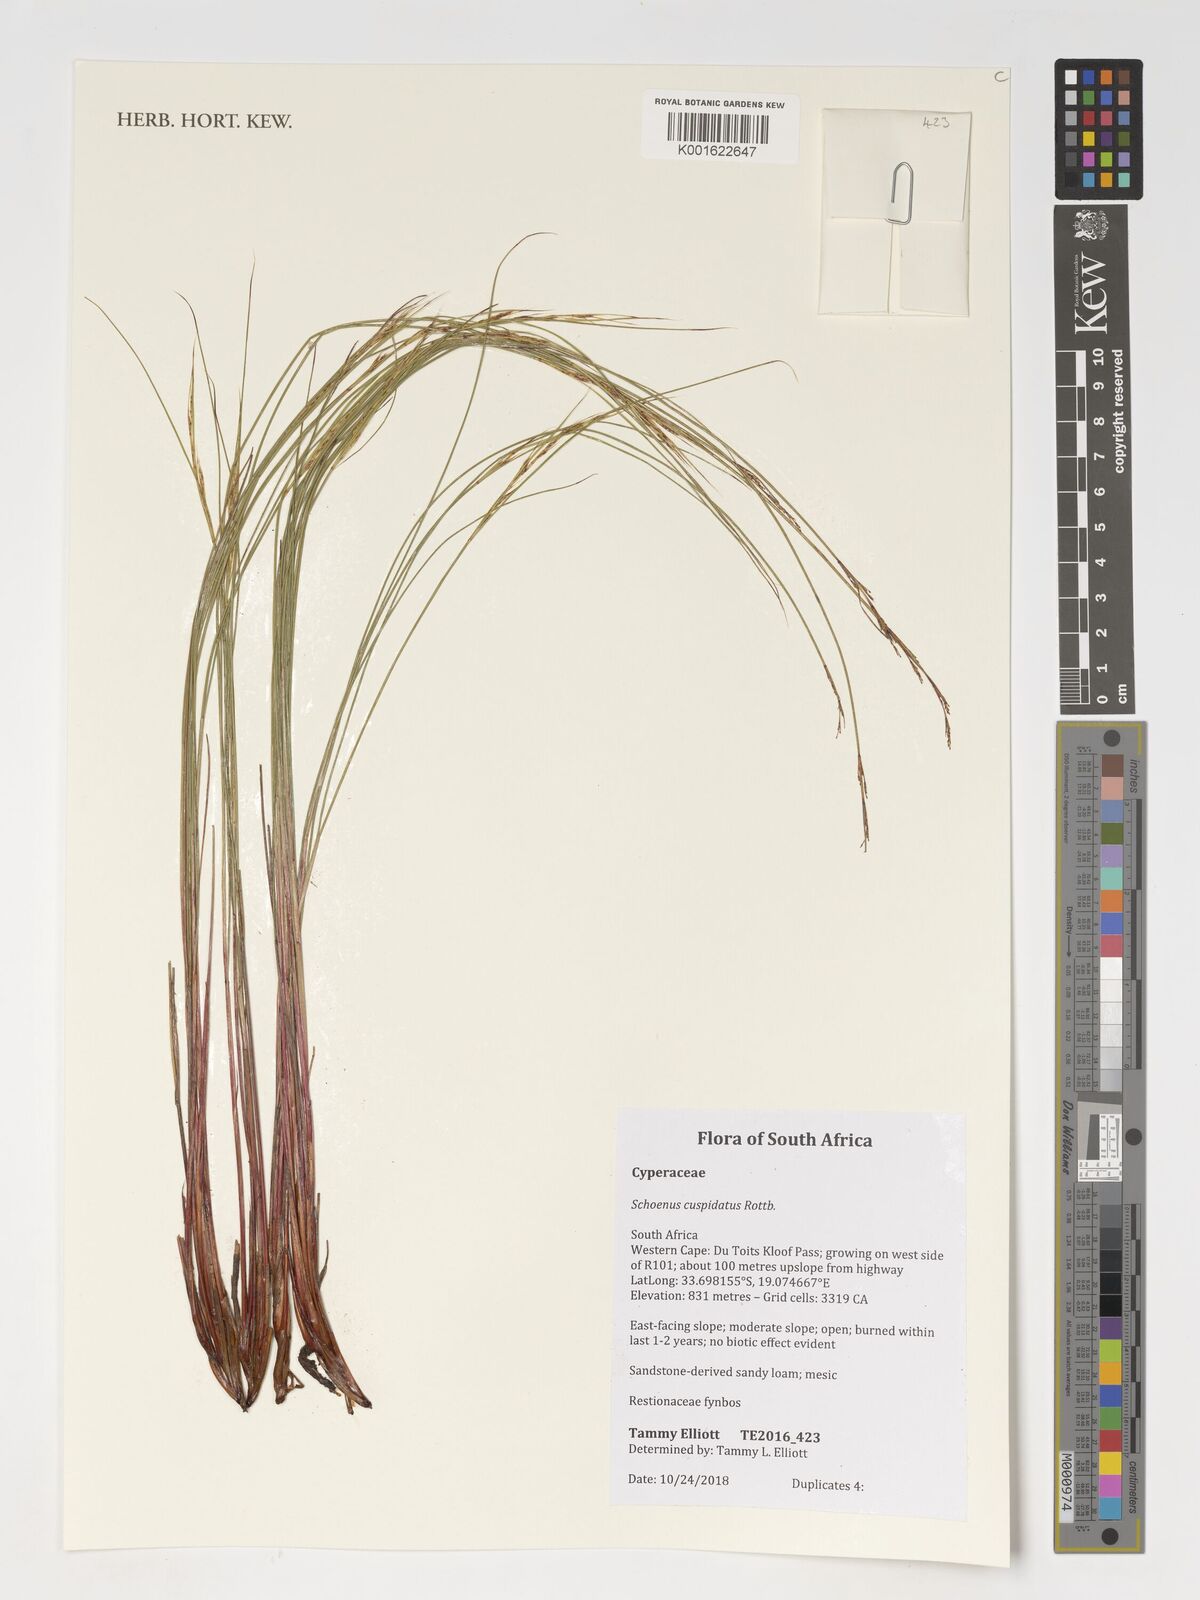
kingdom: Plantae
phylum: Tracheophyta
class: Liliopsida
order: Poales
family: Cyperaceae
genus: Schoenus
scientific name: Schoenus cuspidatus
